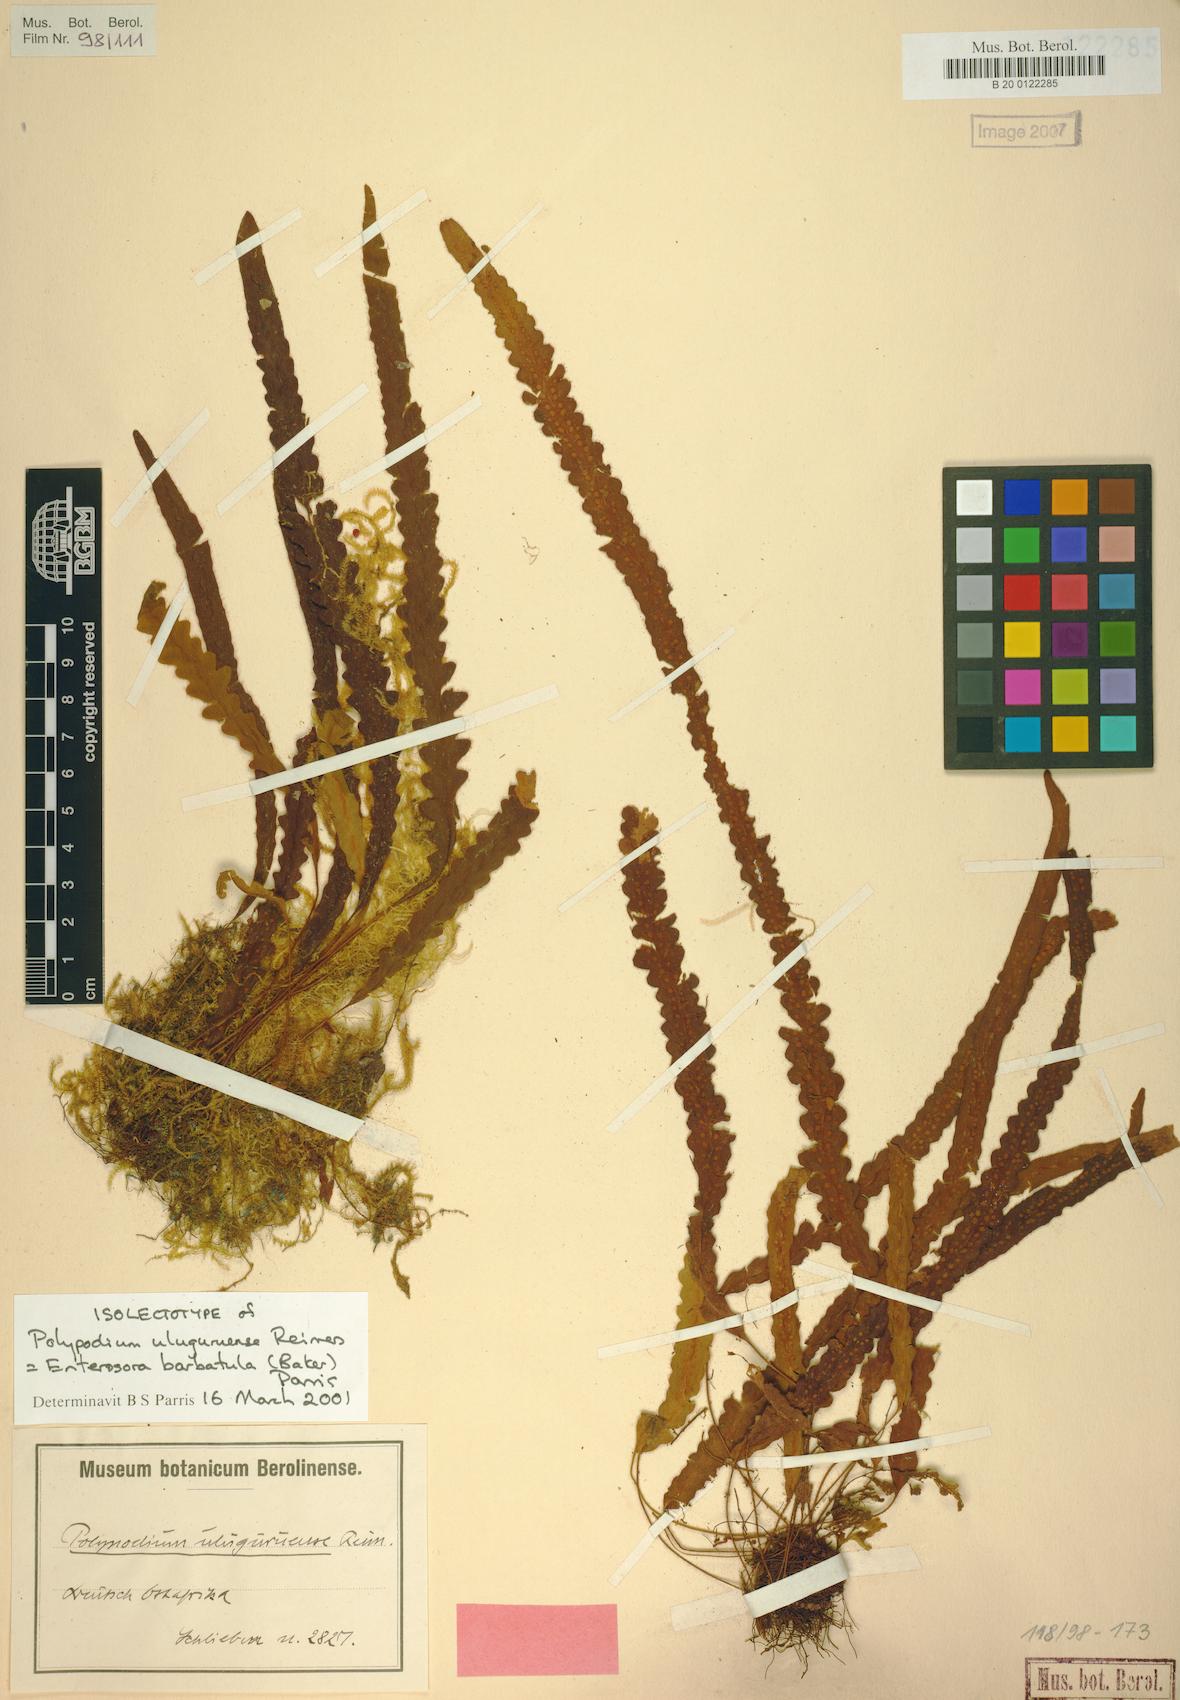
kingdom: Plantae
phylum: Tracheophyta
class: Polypodiopsida
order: Polypodiales
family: Polypodiaceae
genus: Enterosora
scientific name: Enterosora barbatula
